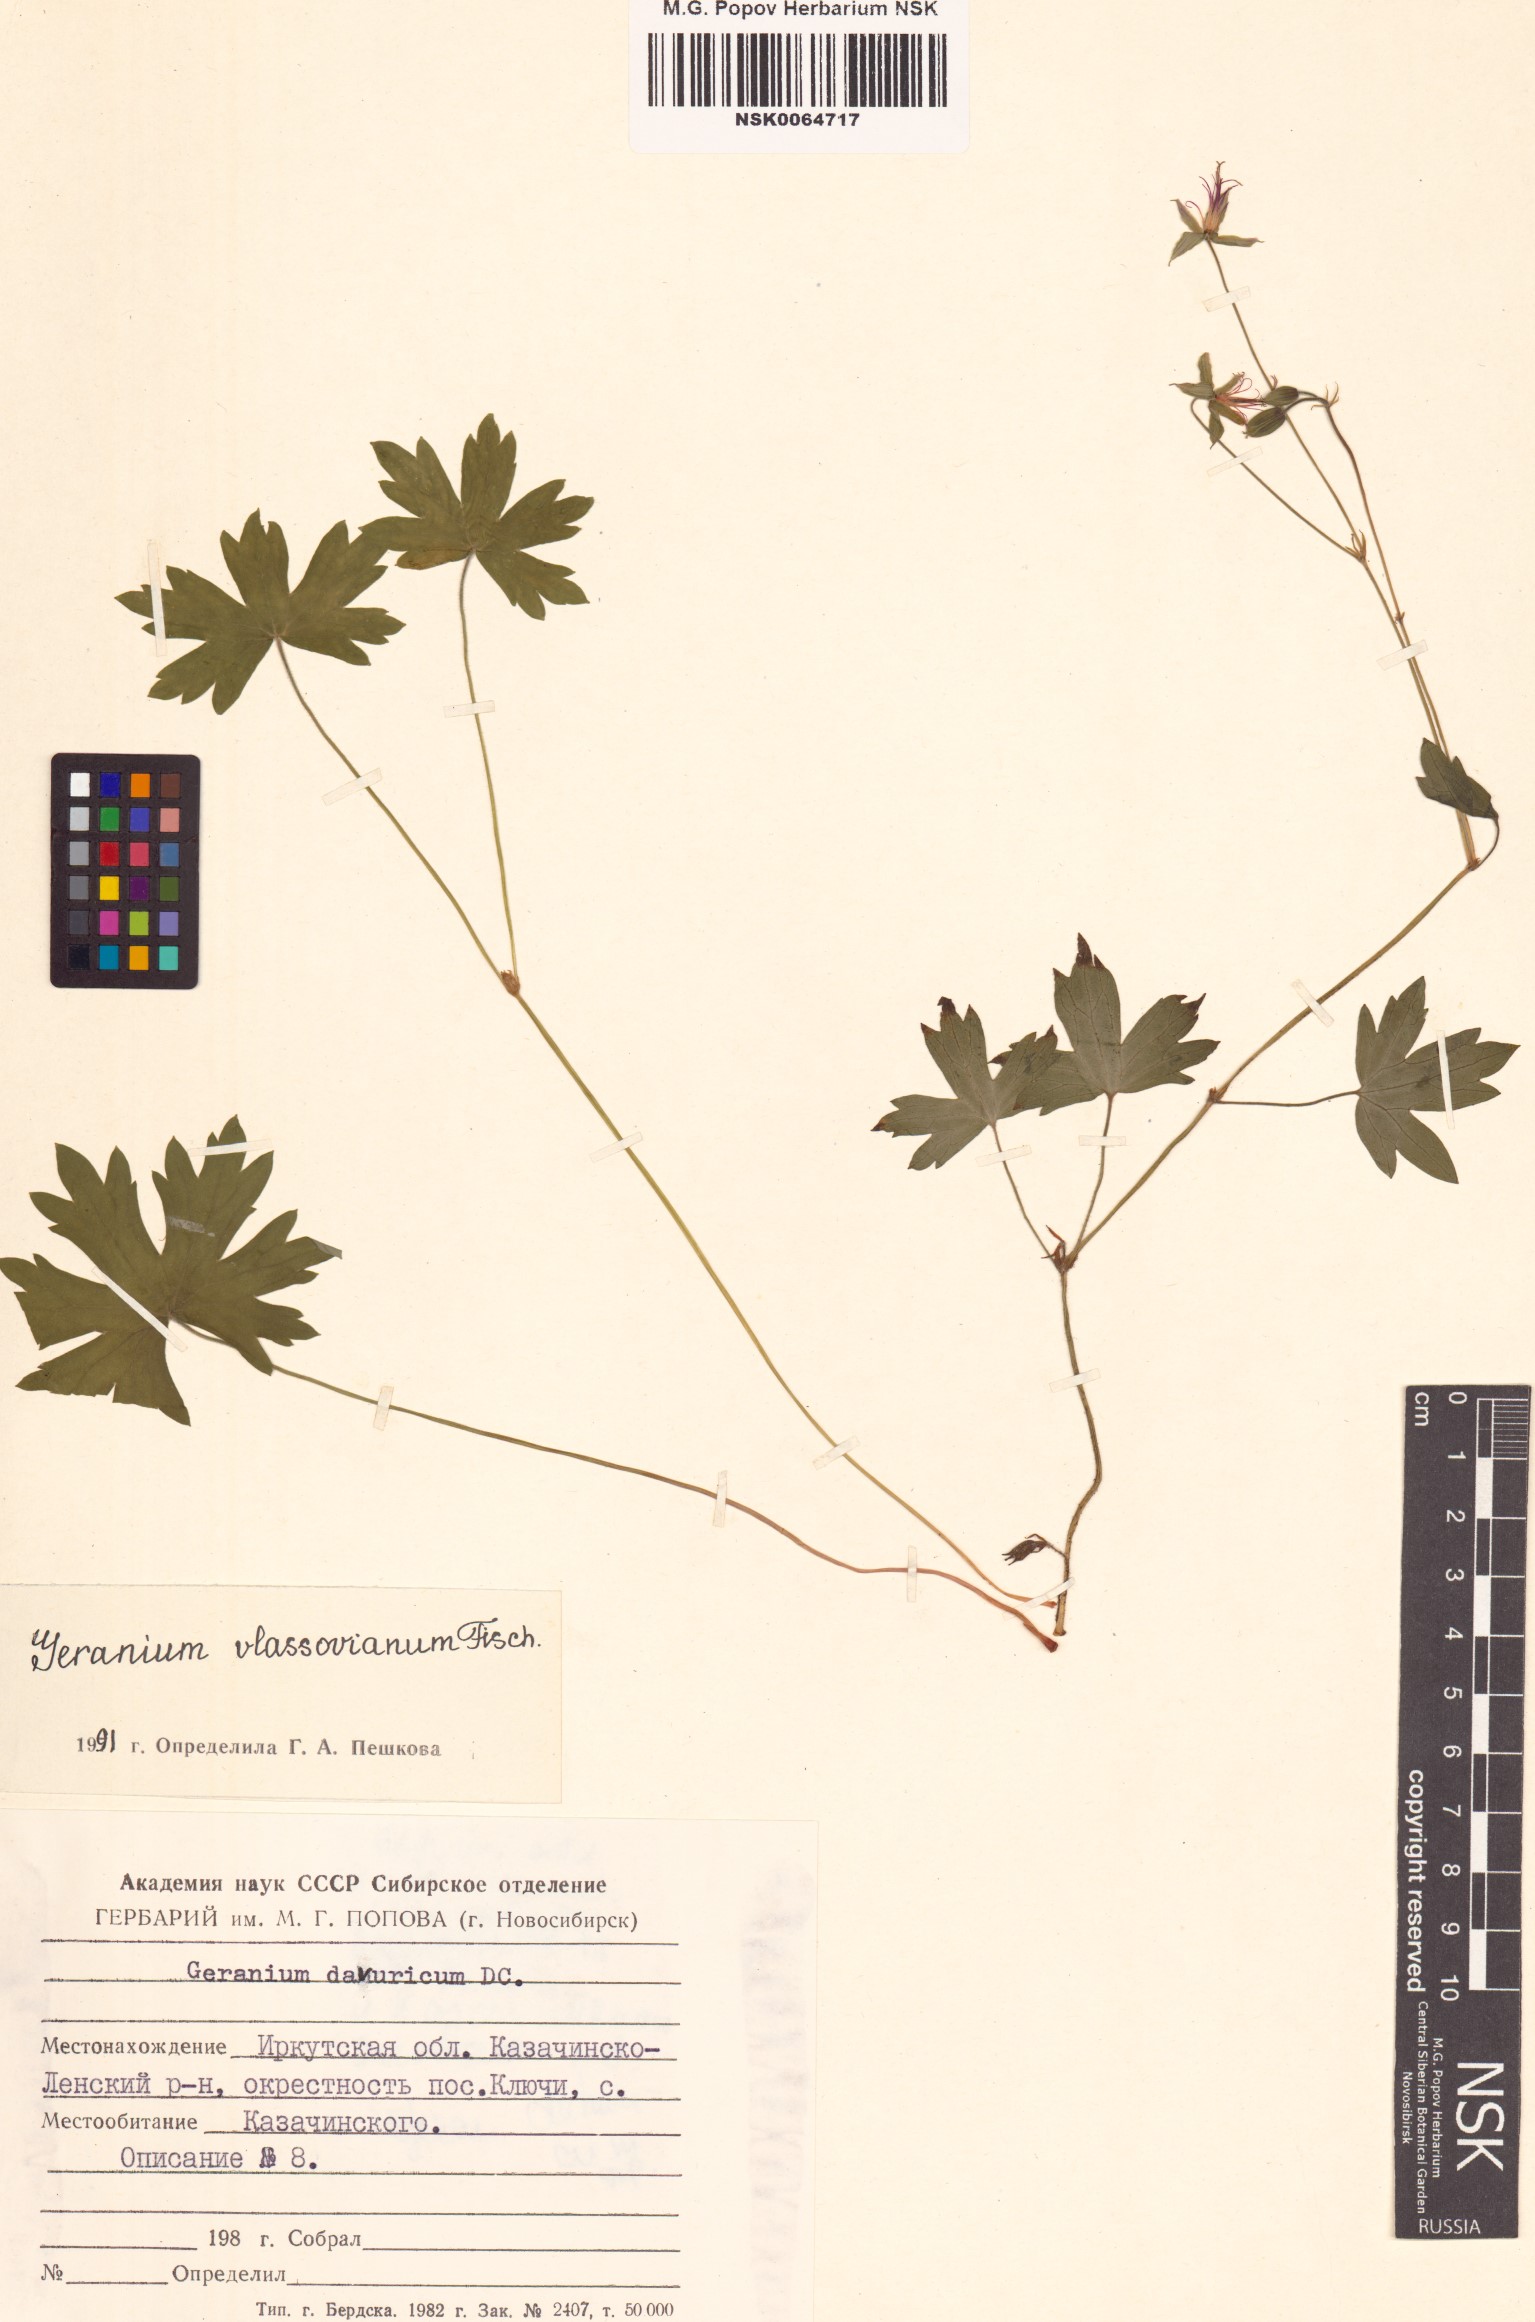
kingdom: Plantae
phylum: Tracheophyta
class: Magnoliopsida
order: Geraniales
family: Geraniaceae
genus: Geranium
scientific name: Geranium wlassovianum
